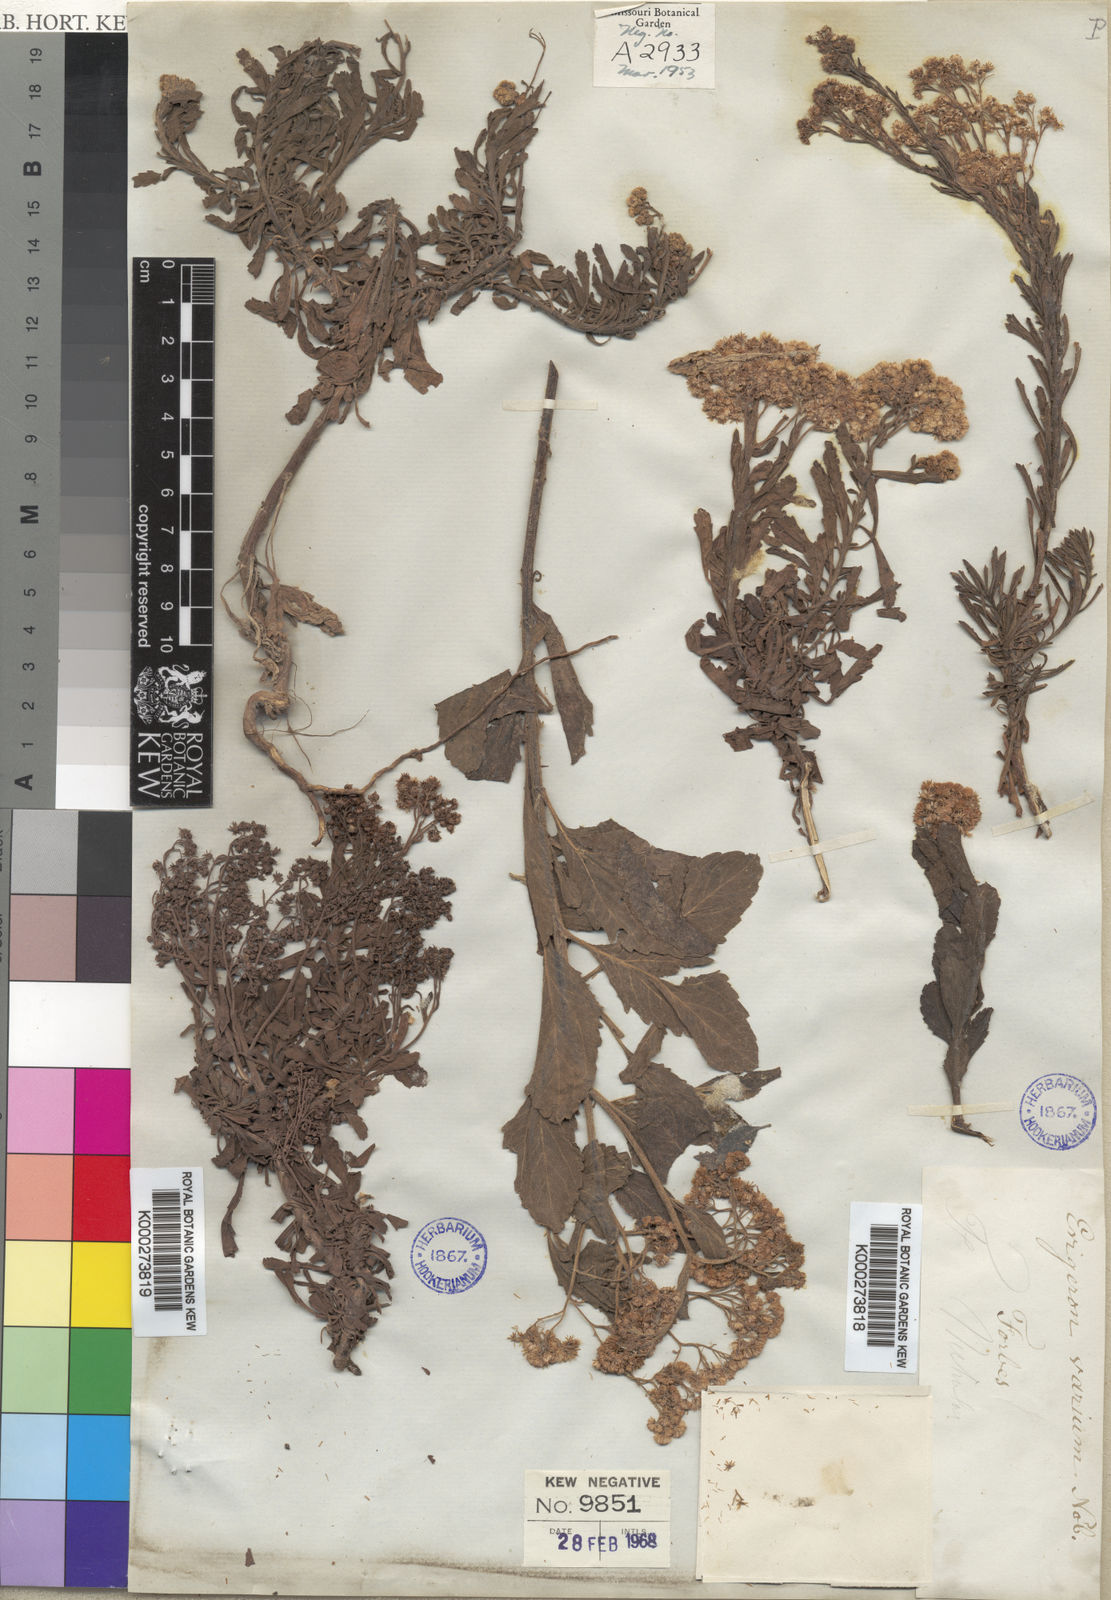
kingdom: Plantae
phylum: Tracheophyta
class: Magnoliopsida
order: Asterales
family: Asteraceae
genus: Nidorella
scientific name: Nidorella varia
